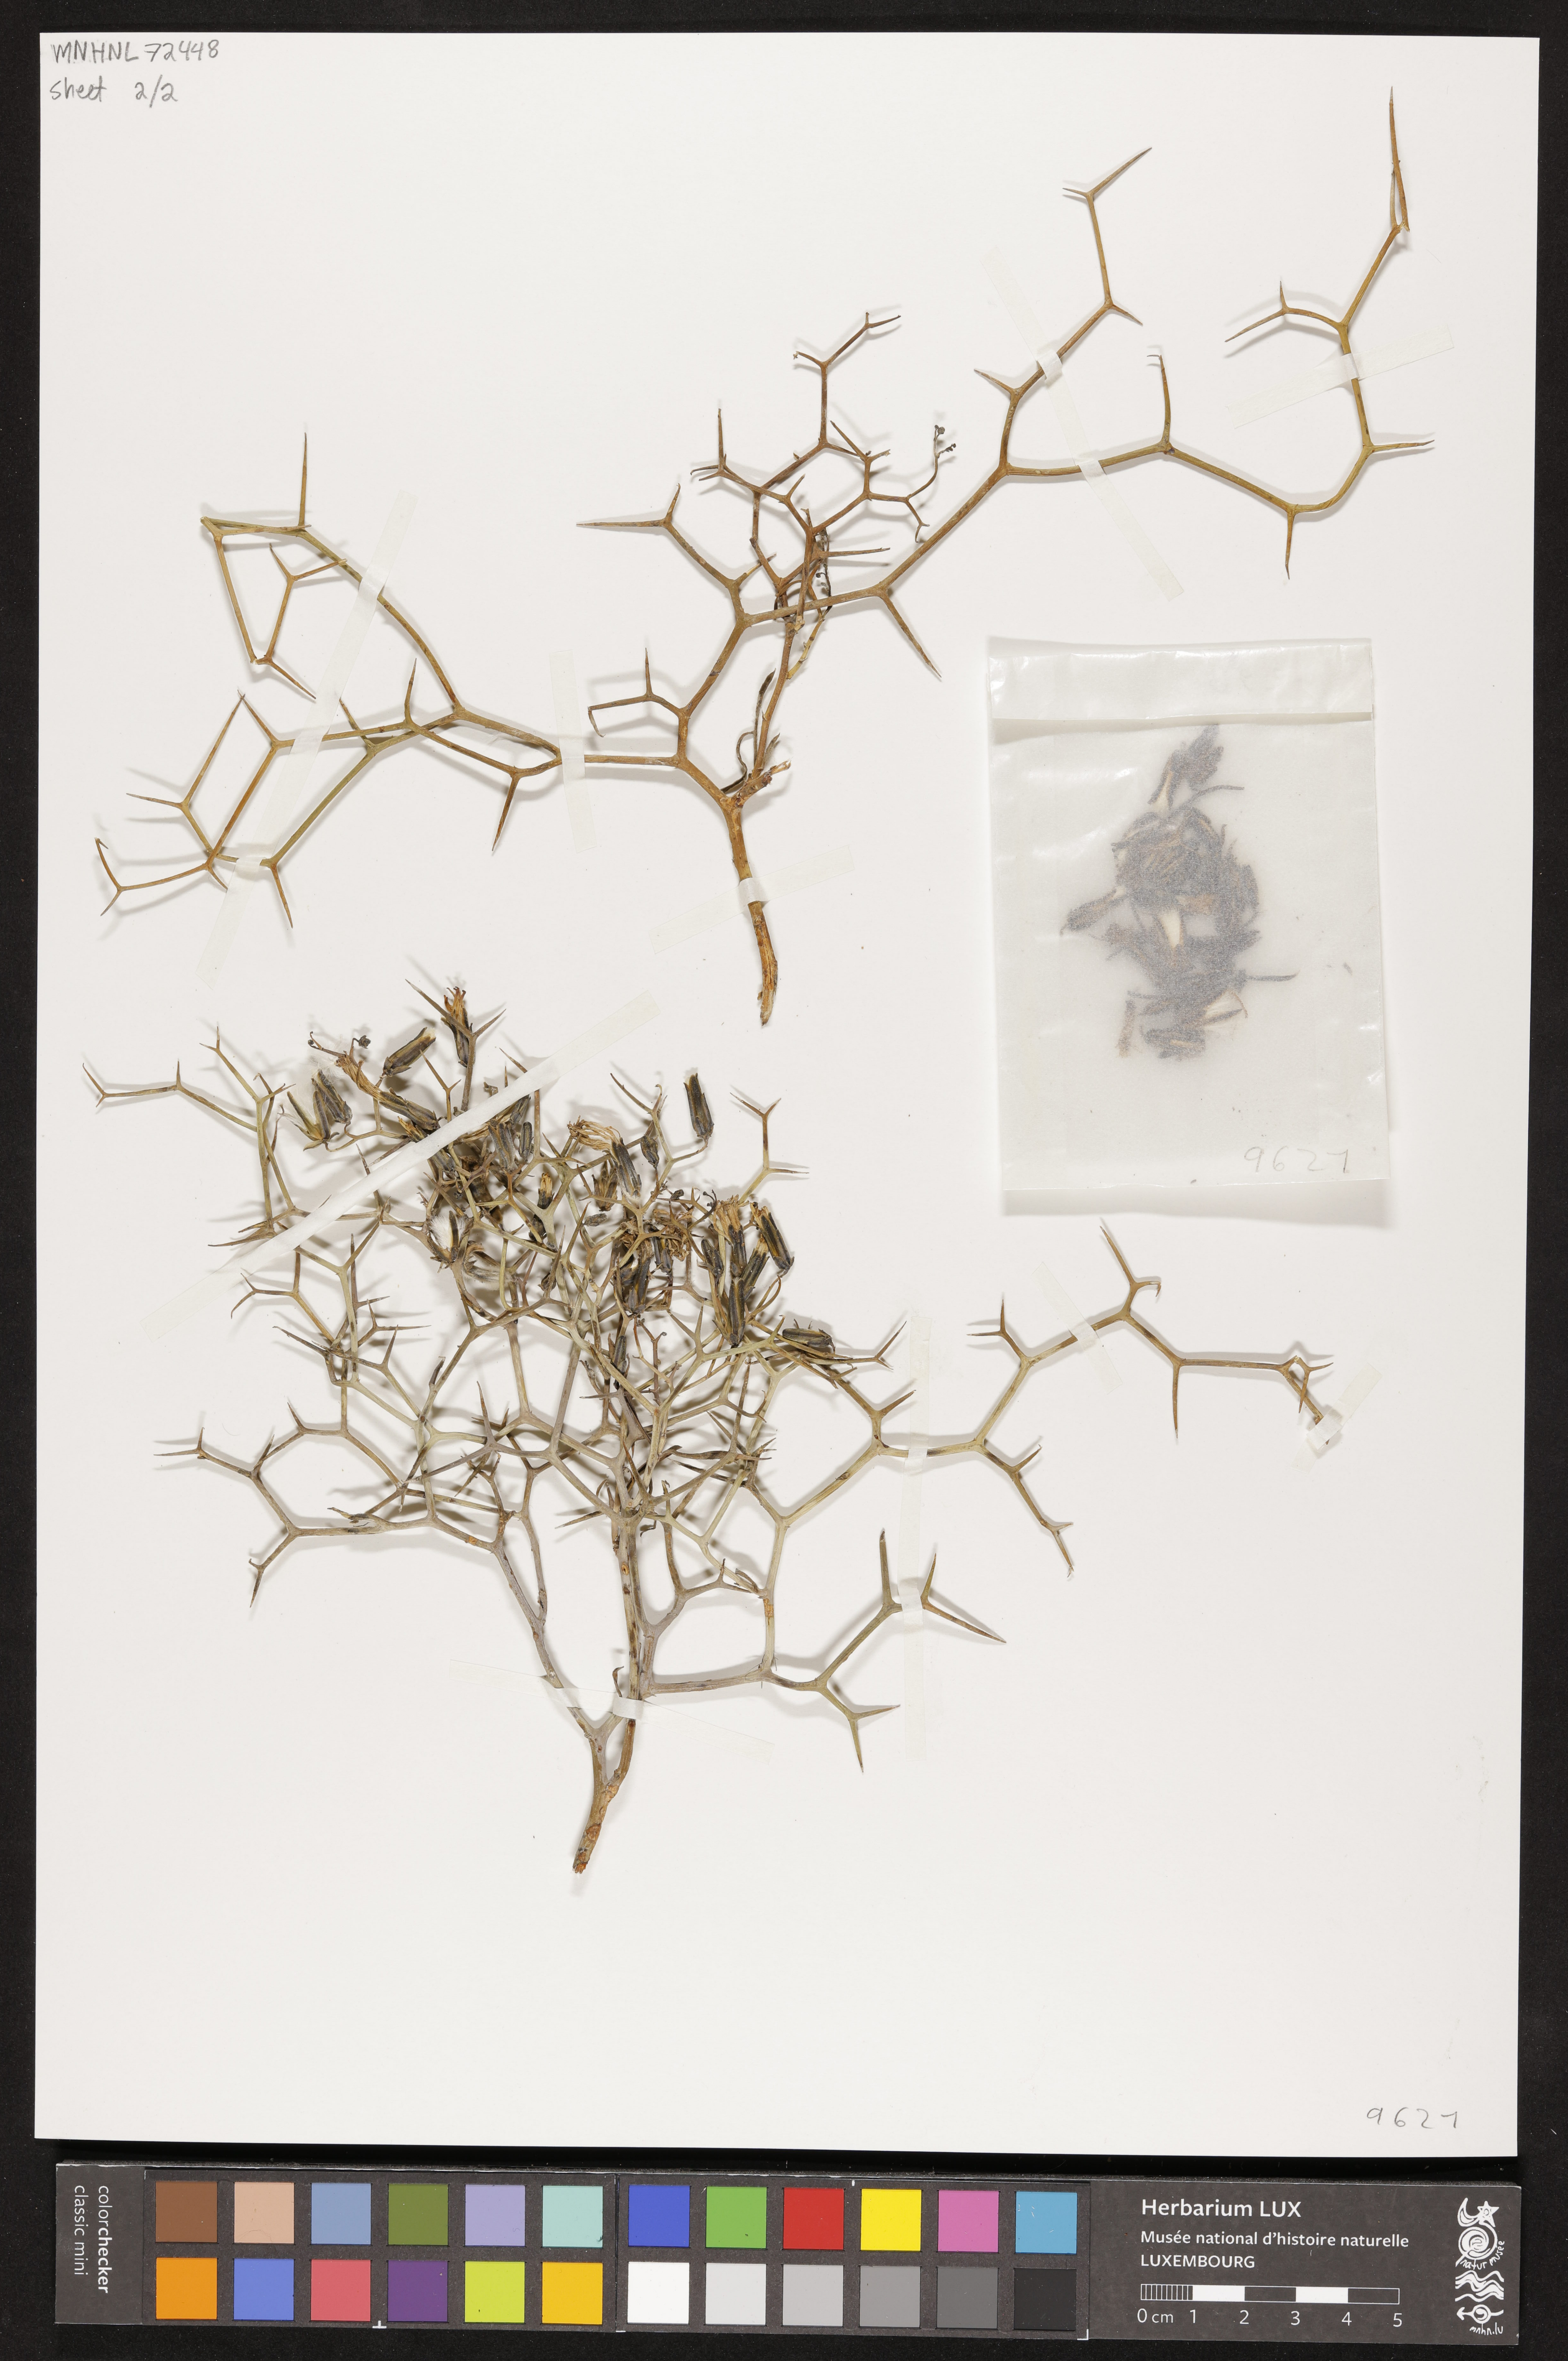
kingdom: Plantae
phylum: Tracheophyta
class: Magnoliopsida
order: Asterales
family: Asteraceae
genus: Launaea
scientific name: Launaea spinosa
